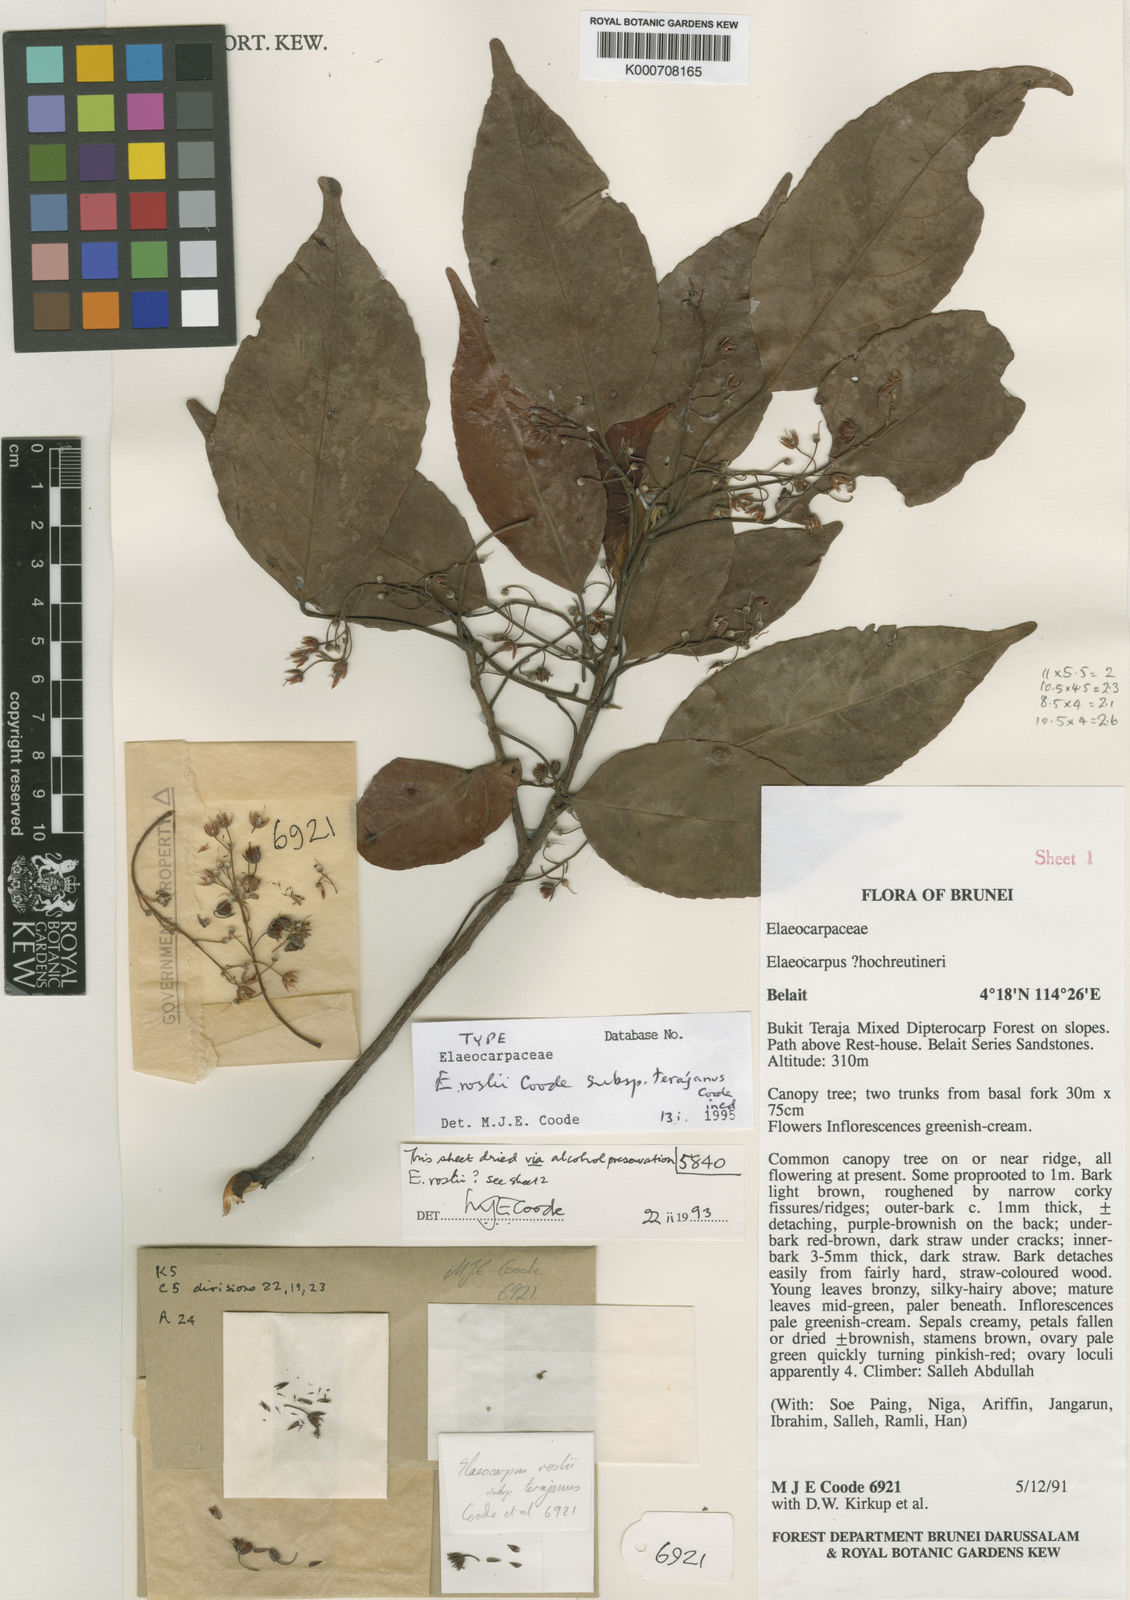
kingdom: Plantae
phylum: Tracheophyta
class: Magnoliopsida
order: Oxalidales
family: Elaeocarpaceae
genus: Elaeocarpus
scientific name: Elaeocarpus roslii
